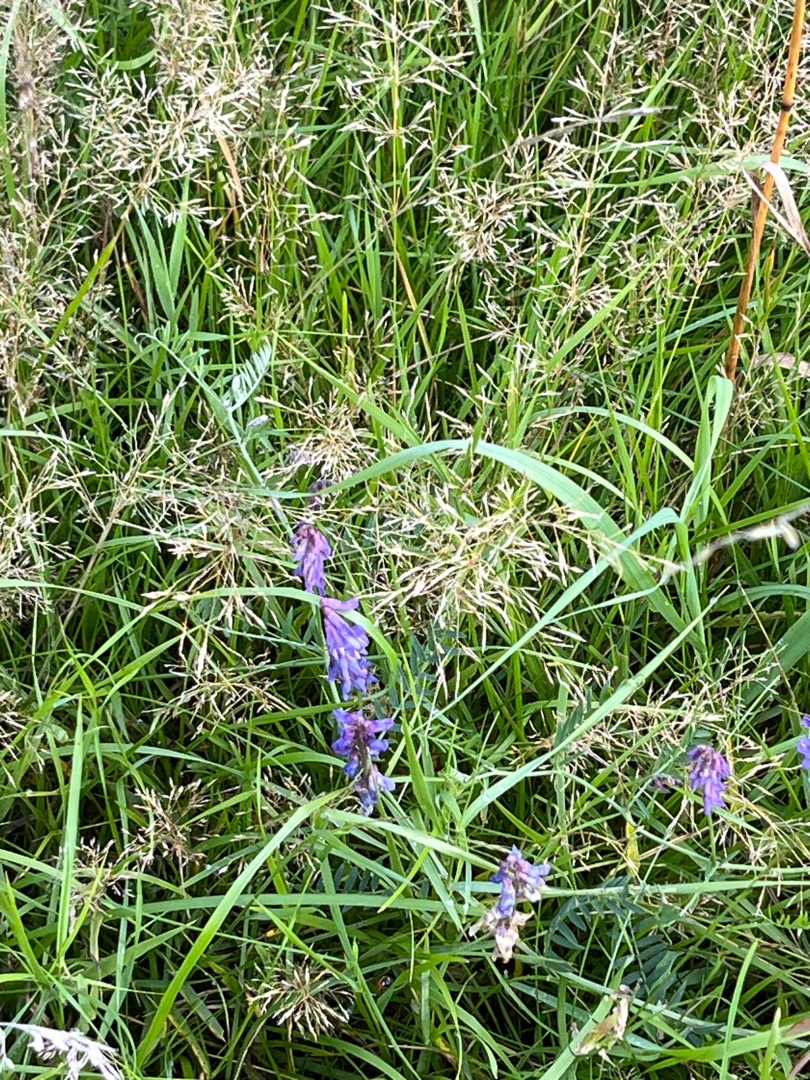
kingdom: Plantae
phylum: Tracheophyta
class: Magnoliopsida
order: Fabales
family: Fabaceae
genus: Vicia
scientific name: Vicia cracca
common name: Muse-vikke
